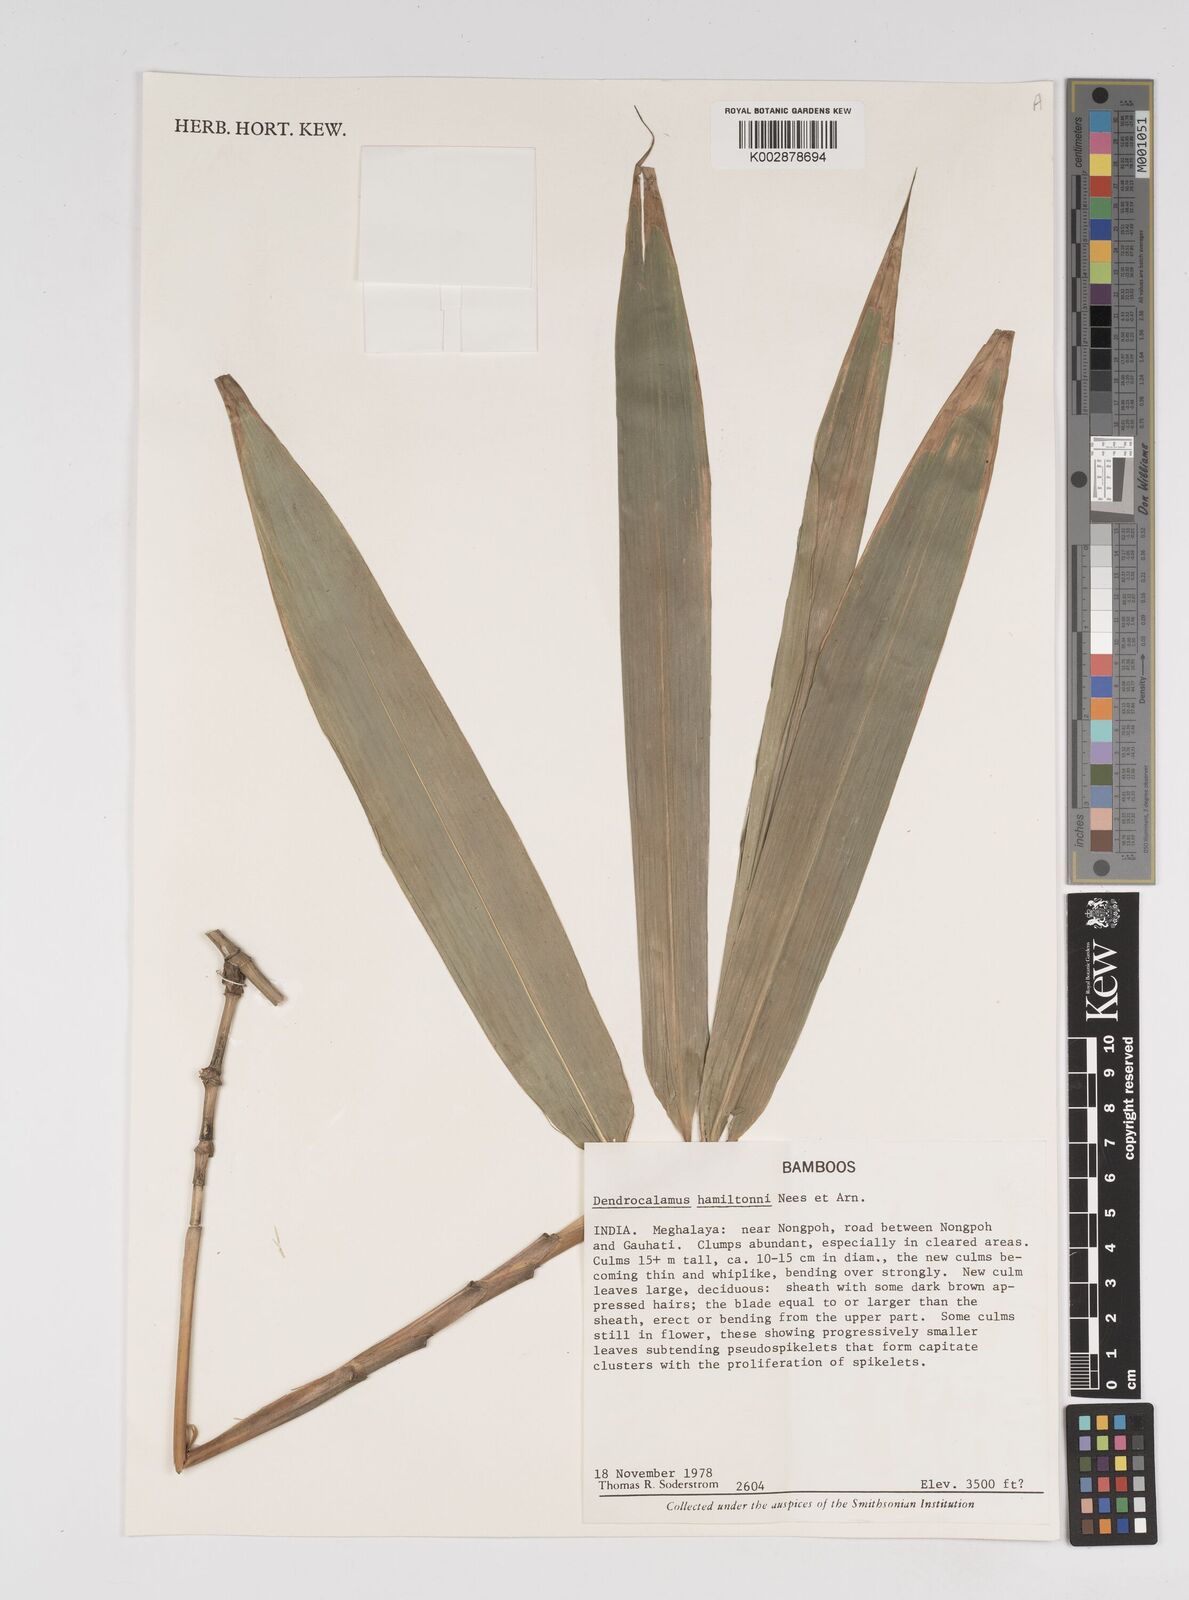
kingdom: Plantae
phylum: Tracheophyta
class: Liliopsida
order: Poales
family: Poaceae
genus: Dendrocalamus
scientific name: Dendrocalamus
